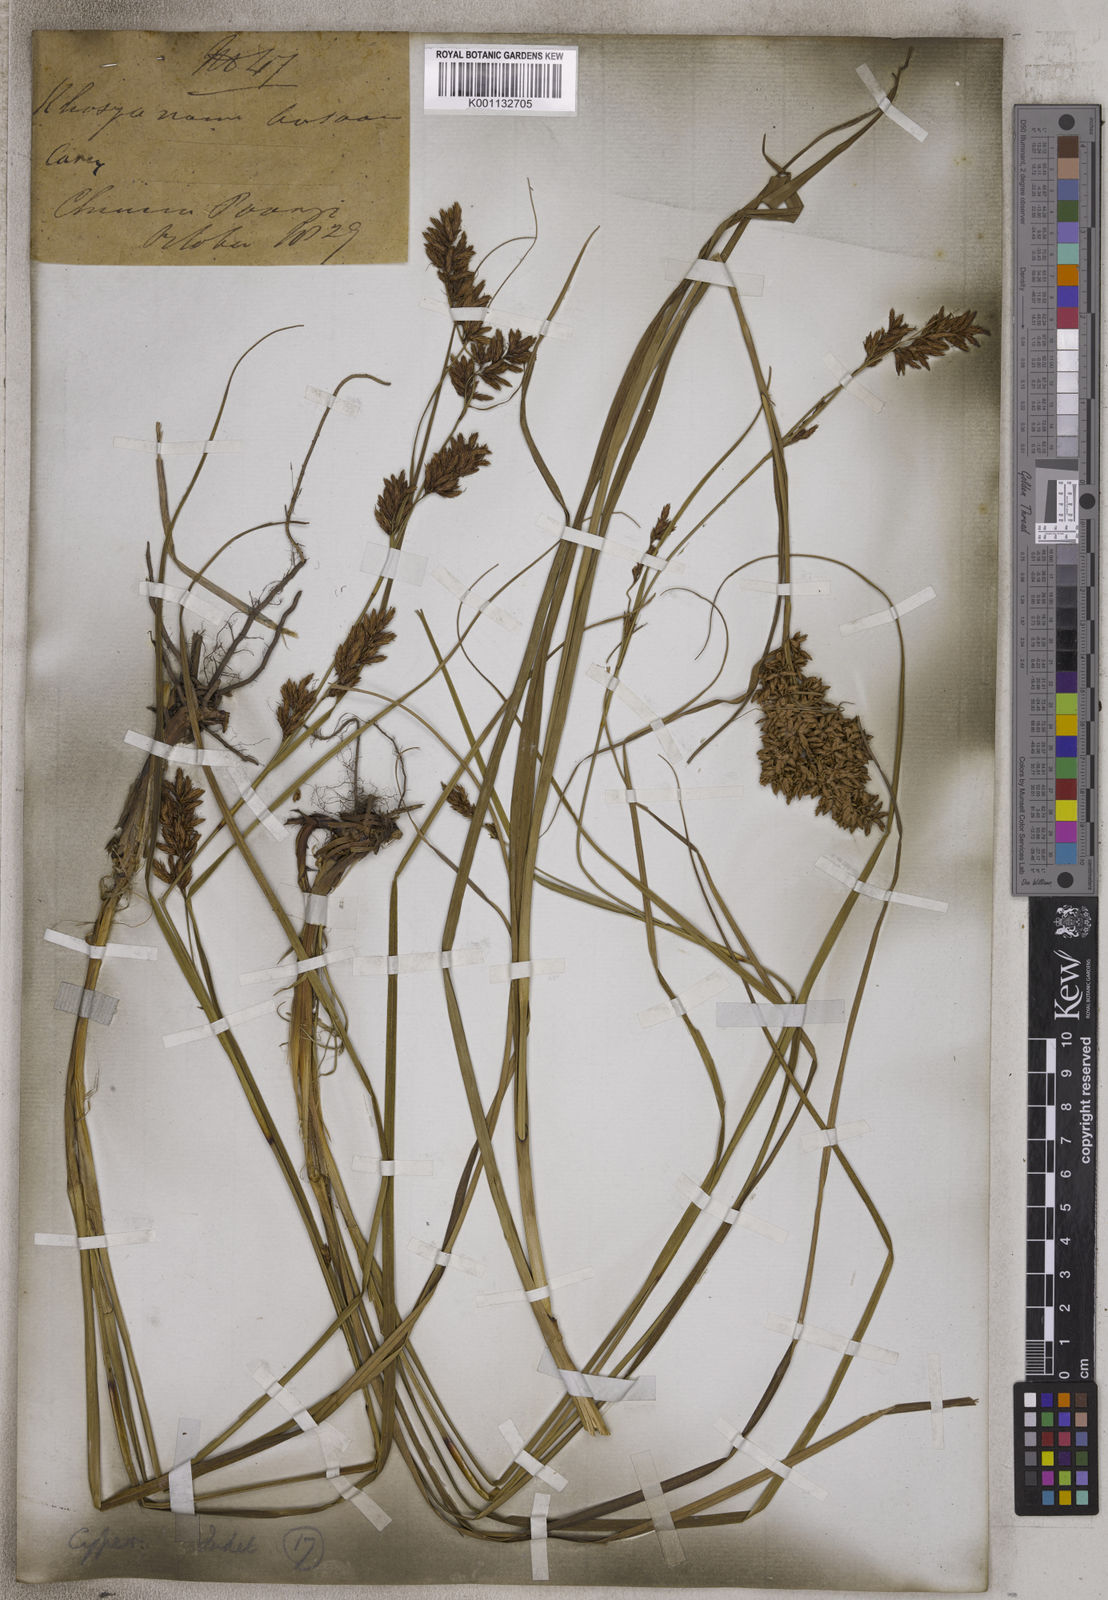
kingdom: Plantae
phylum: Tracheophyta
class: Liliopsida
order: Poales
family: Cyperaceae
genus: Carex
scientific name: Carex
